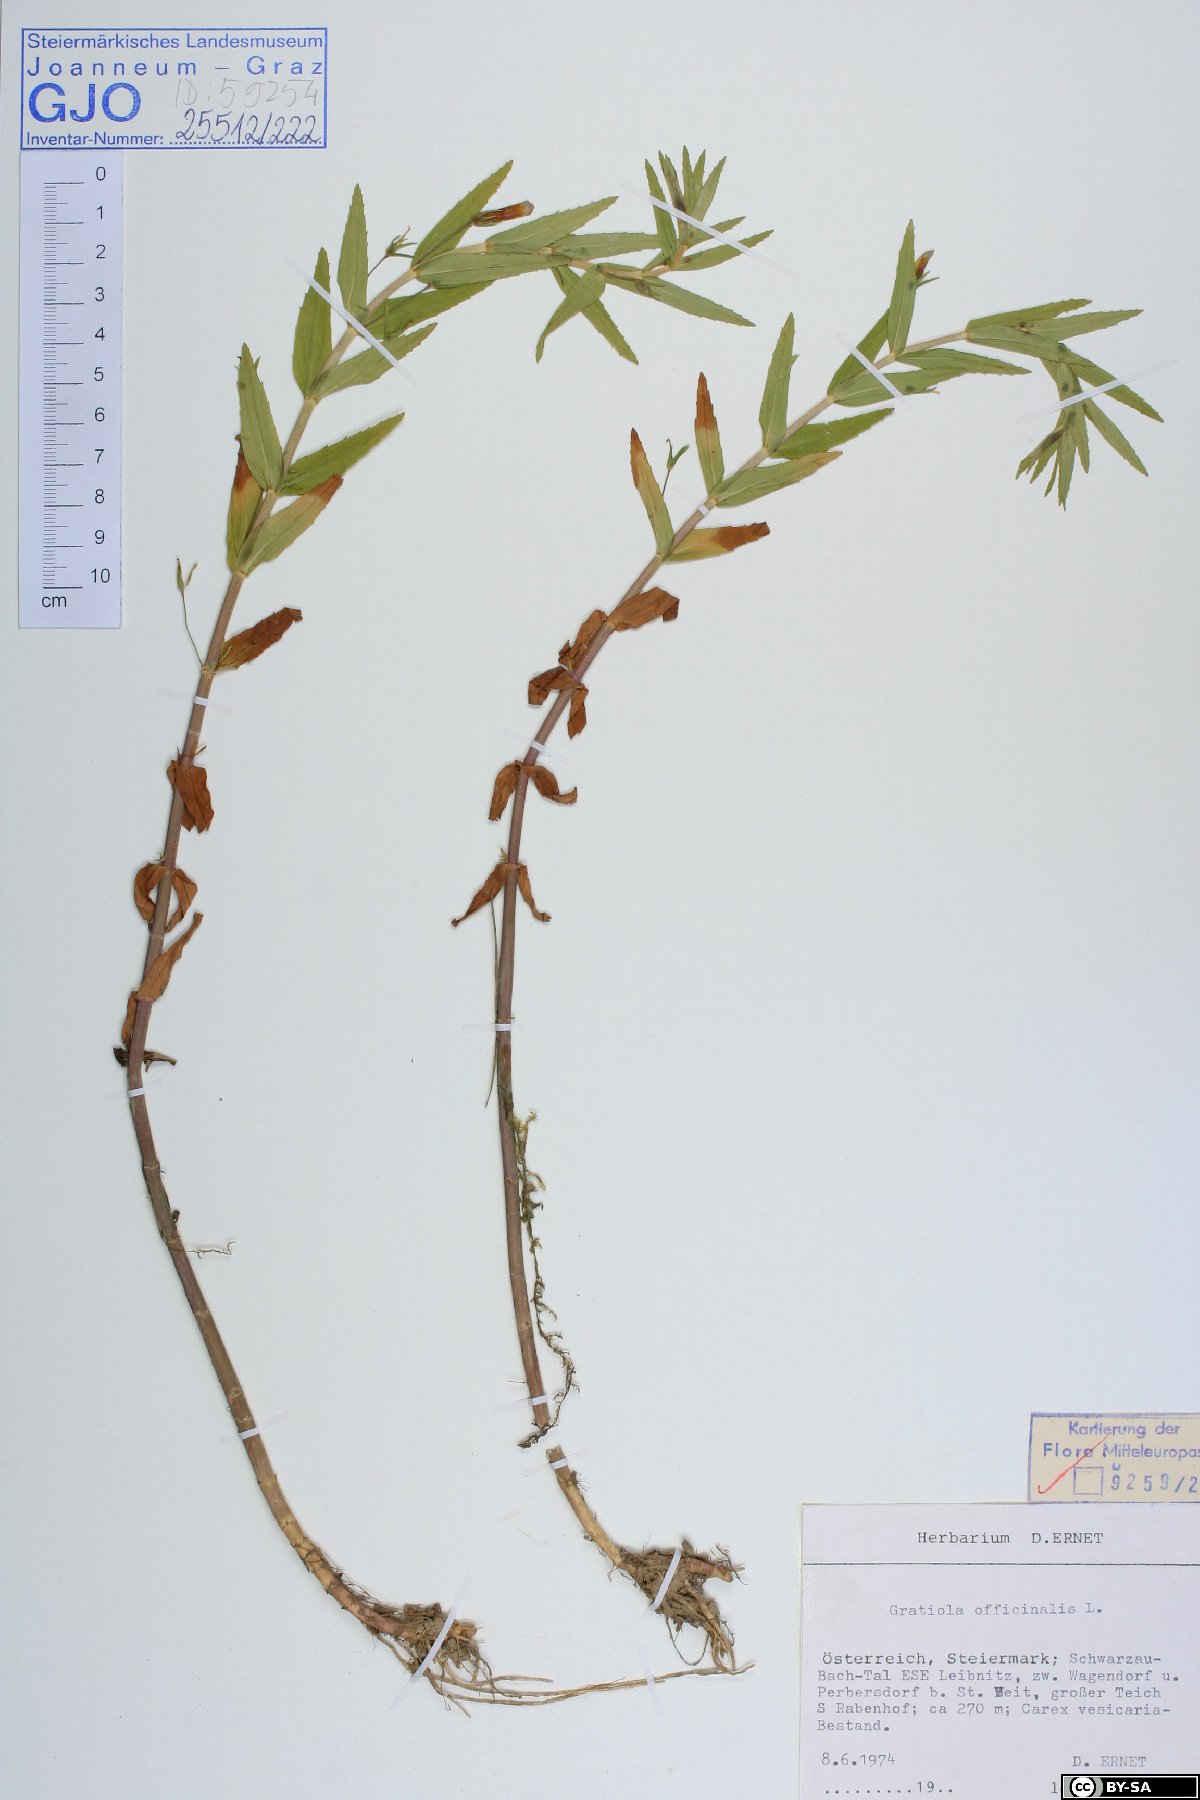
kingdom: Plantae
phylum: Tracheophyta
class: Magnoliopsida
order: Lamiales
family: Plantaginaceae
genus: Gratiola
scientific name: Gratiola officinalis
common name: Gratiola
